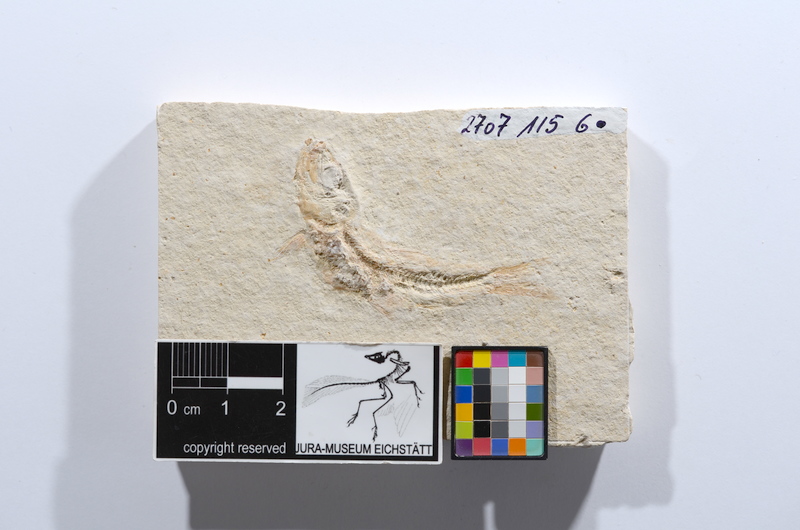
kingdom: Animalia
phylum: Chordata
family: Ascalaboidae
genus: Tharsis
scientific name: Tharsis dubius
